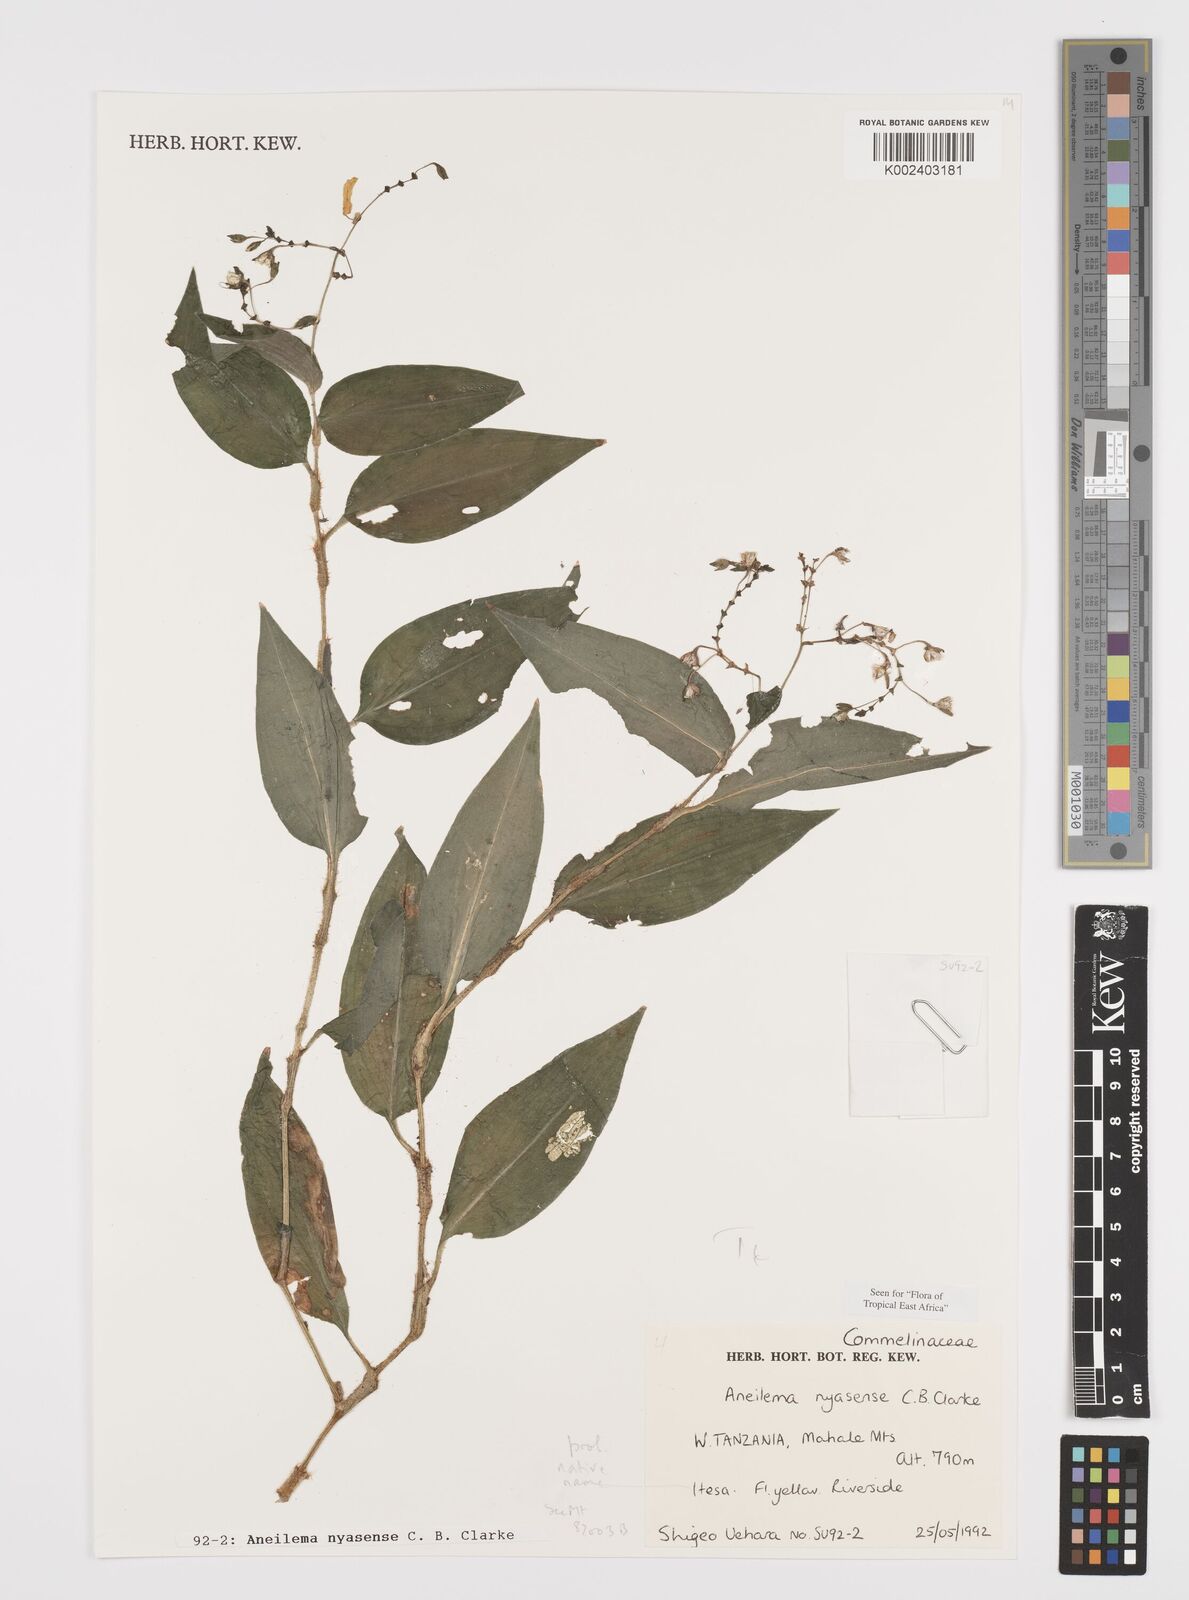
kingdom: Plantae
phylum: Tracheophyta
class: Liliopsida
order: Commelinales
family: Commelinaceae
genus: Aneilema
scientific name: Aneilema nyasense
